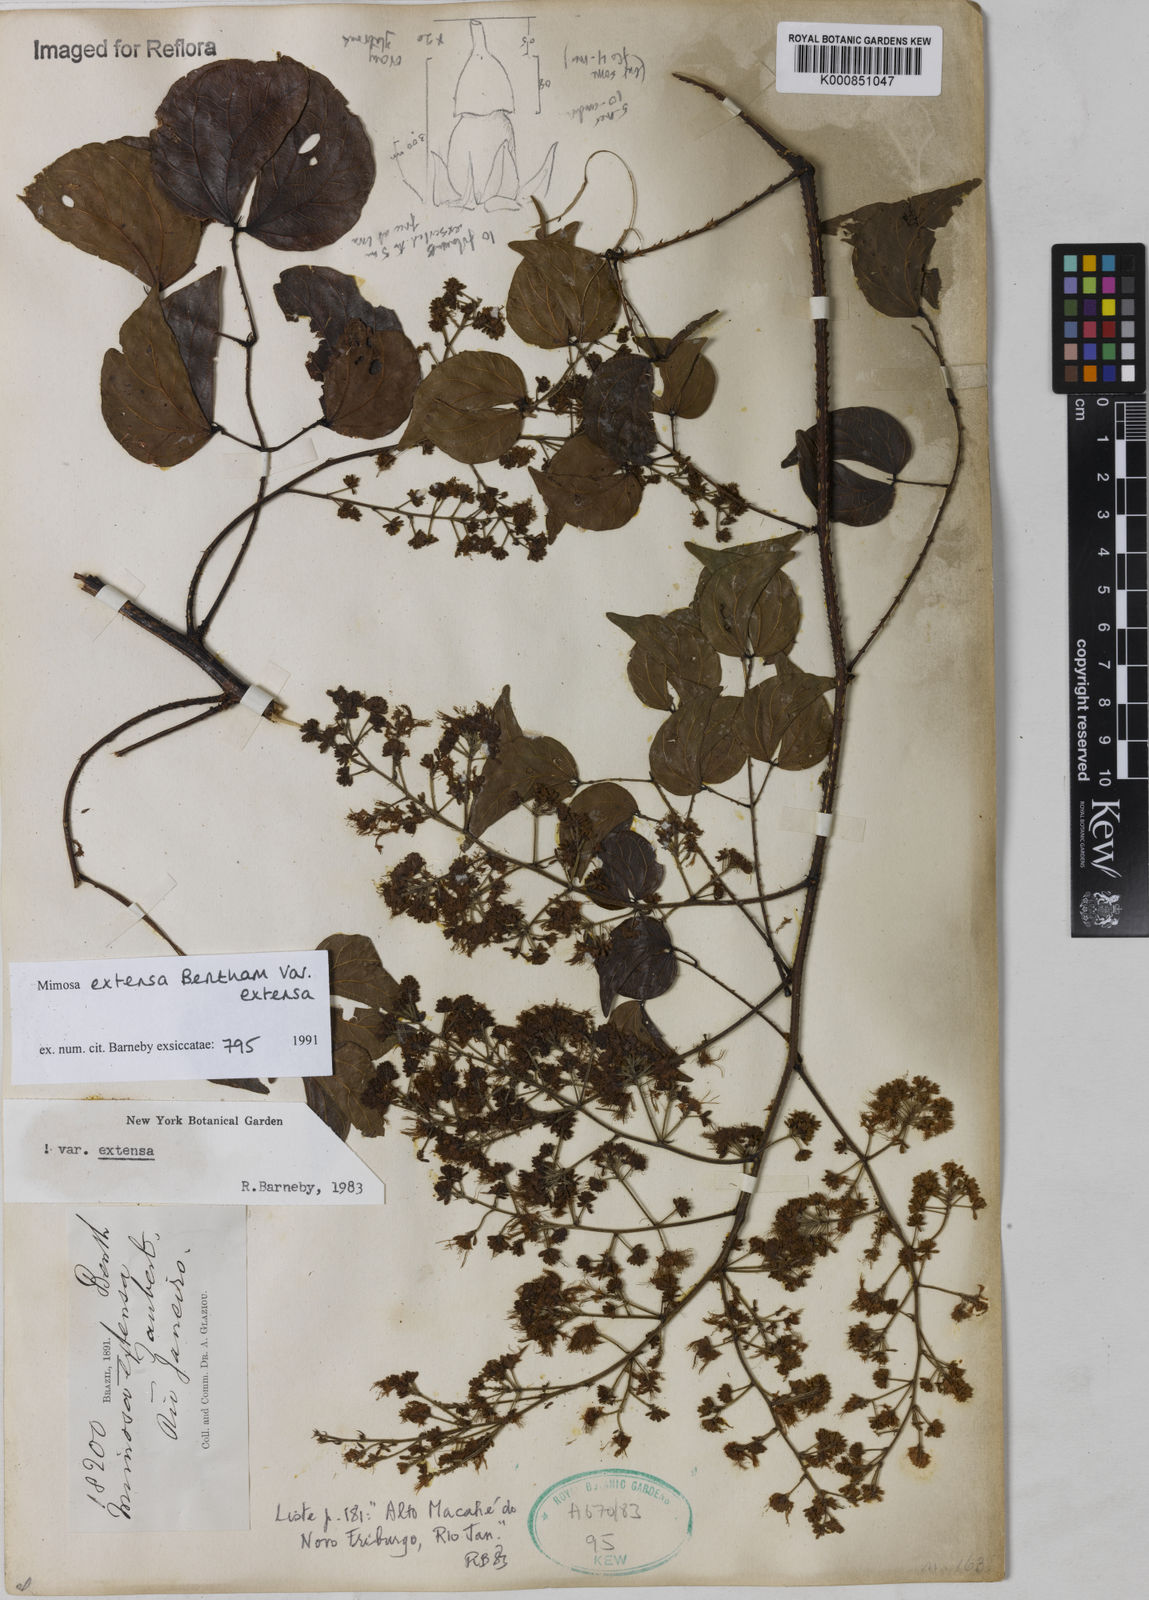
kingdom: Plantae
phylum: Tracheophyta
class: Magnoliopsida
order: Fabales
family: Fabaceae
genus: Mimosa
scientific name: Mimosa extensa
